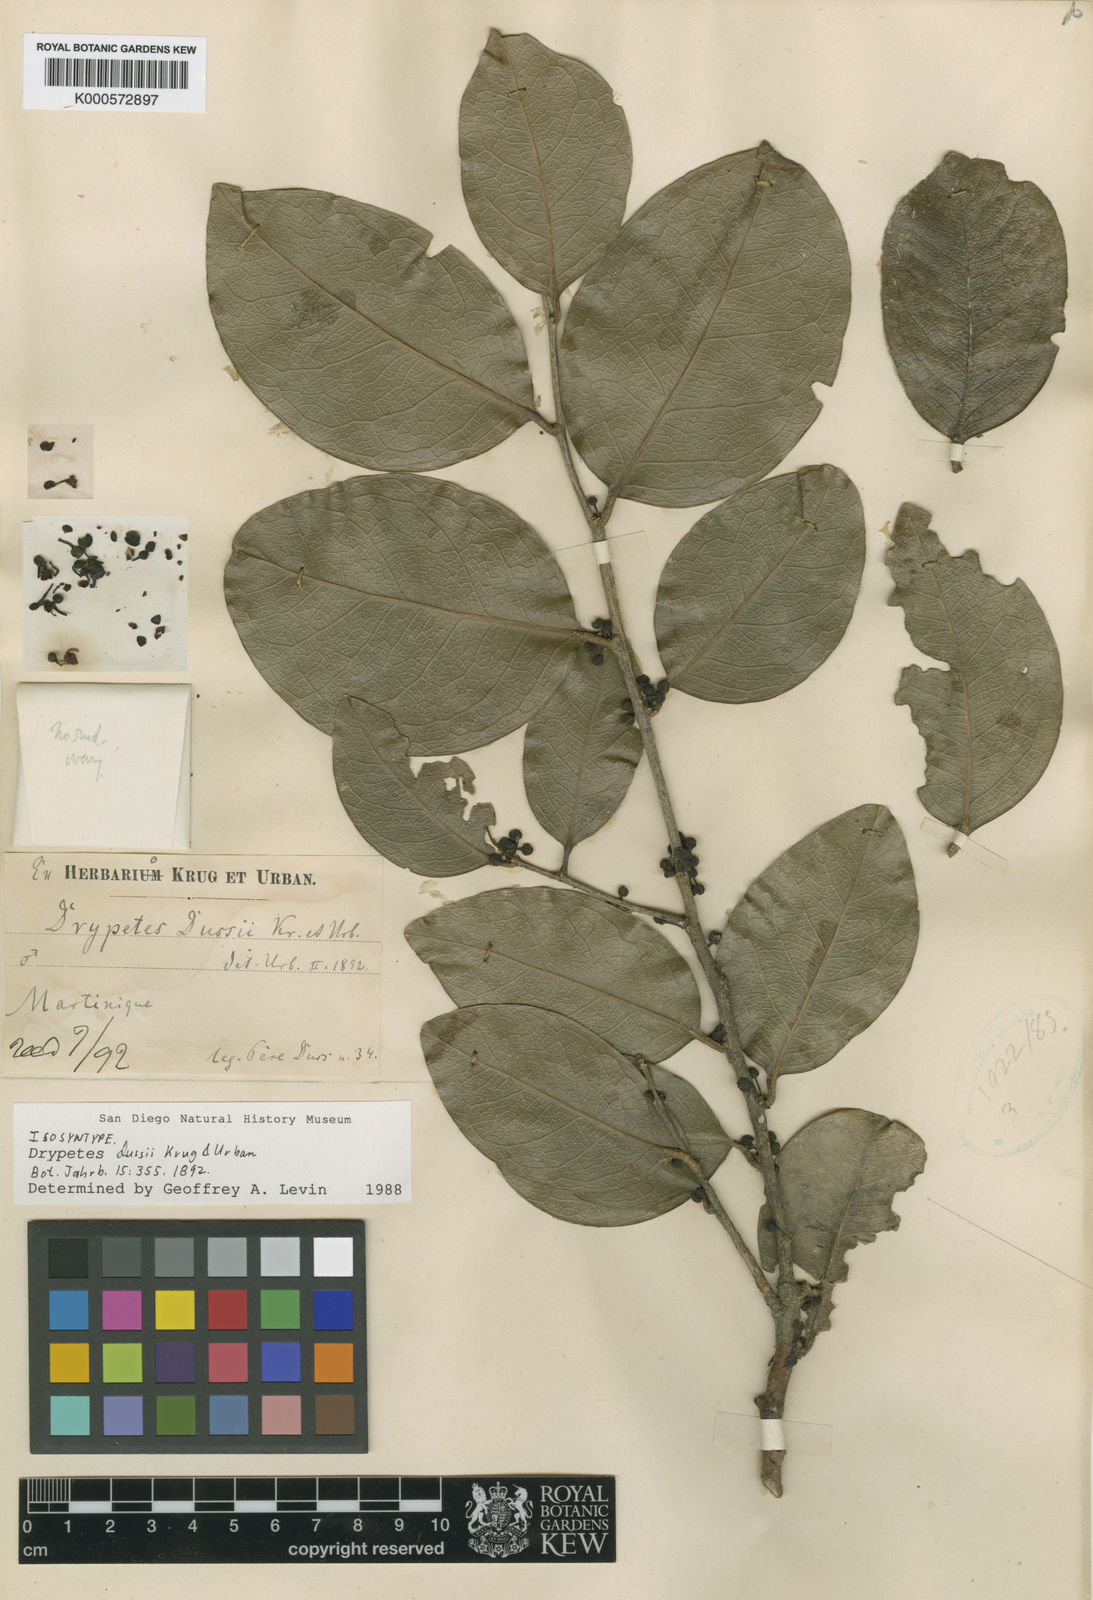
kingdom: Plantae
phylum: Tracheophyta
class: Magnoliopsida
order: Malpighiales
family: Putranjivaceae
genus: Drypetes
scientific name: Drypetes dussii
